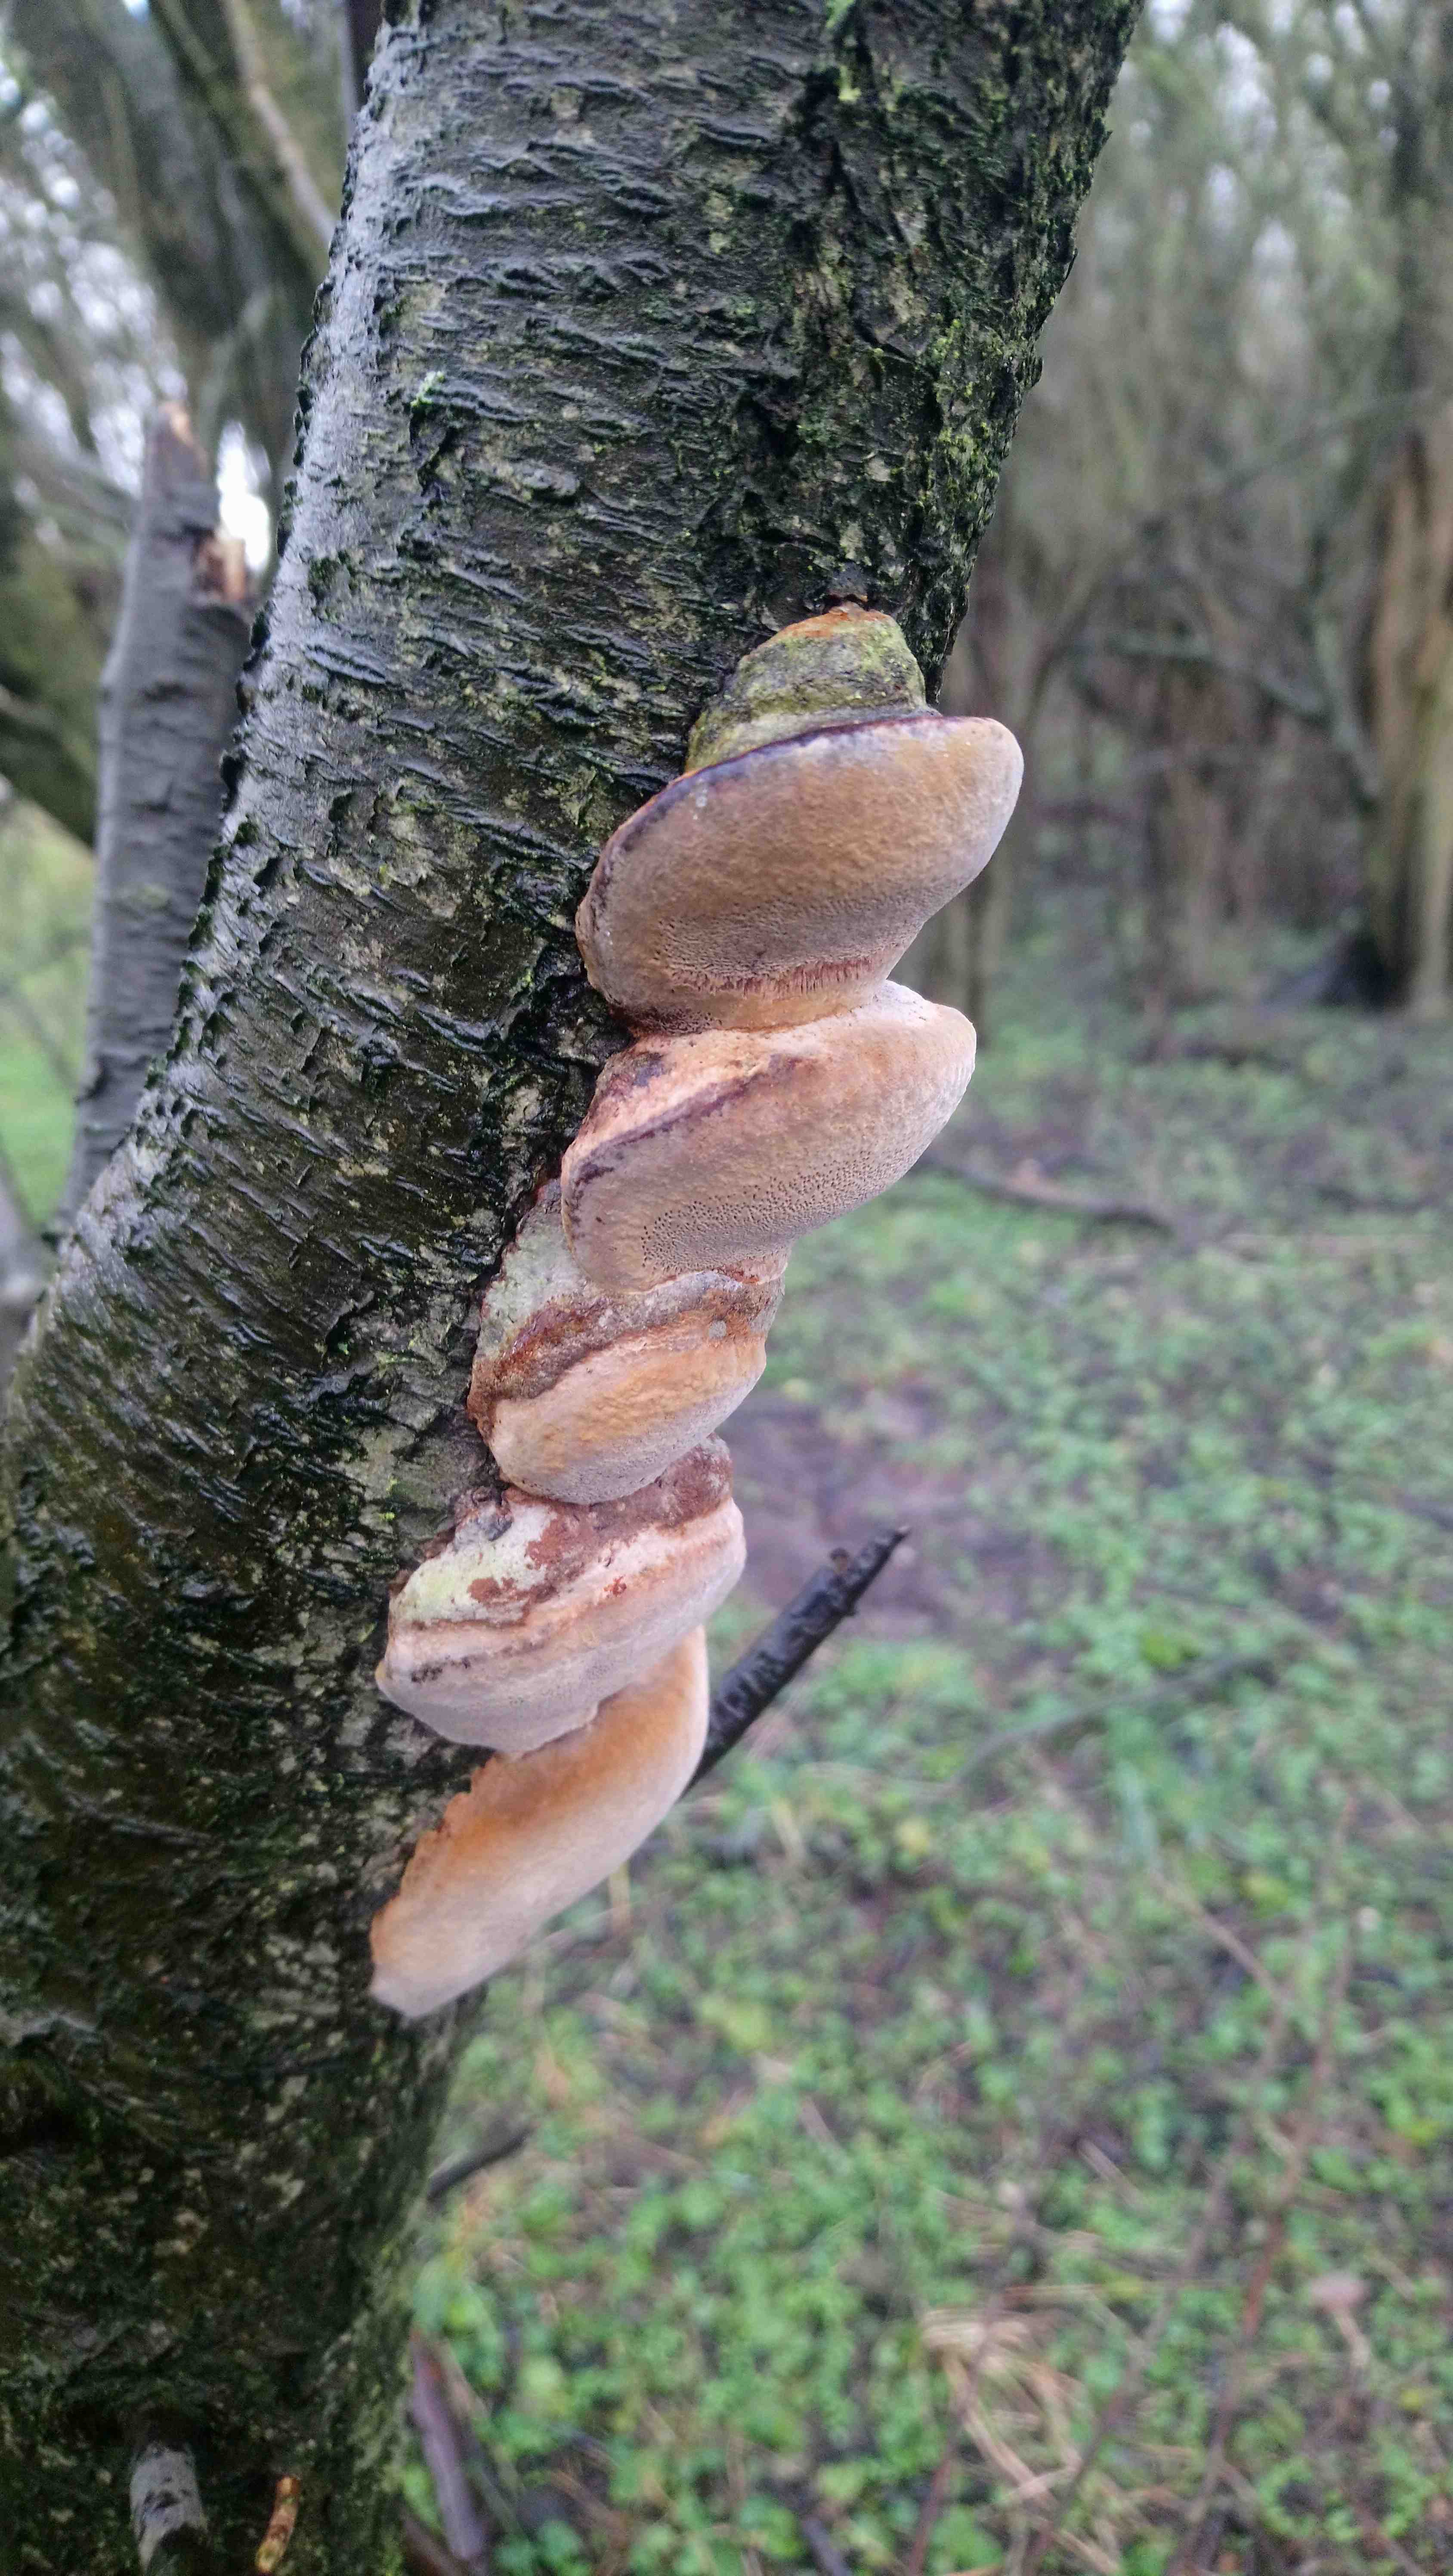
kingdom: Fungi
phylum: Basidiomycota
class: Agaricomycetes
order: Hymenochaetales
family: Hymenochaetaceae
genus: Phellinus
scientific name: Phellinus pomaceus
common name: blomme-ildporesvamp
